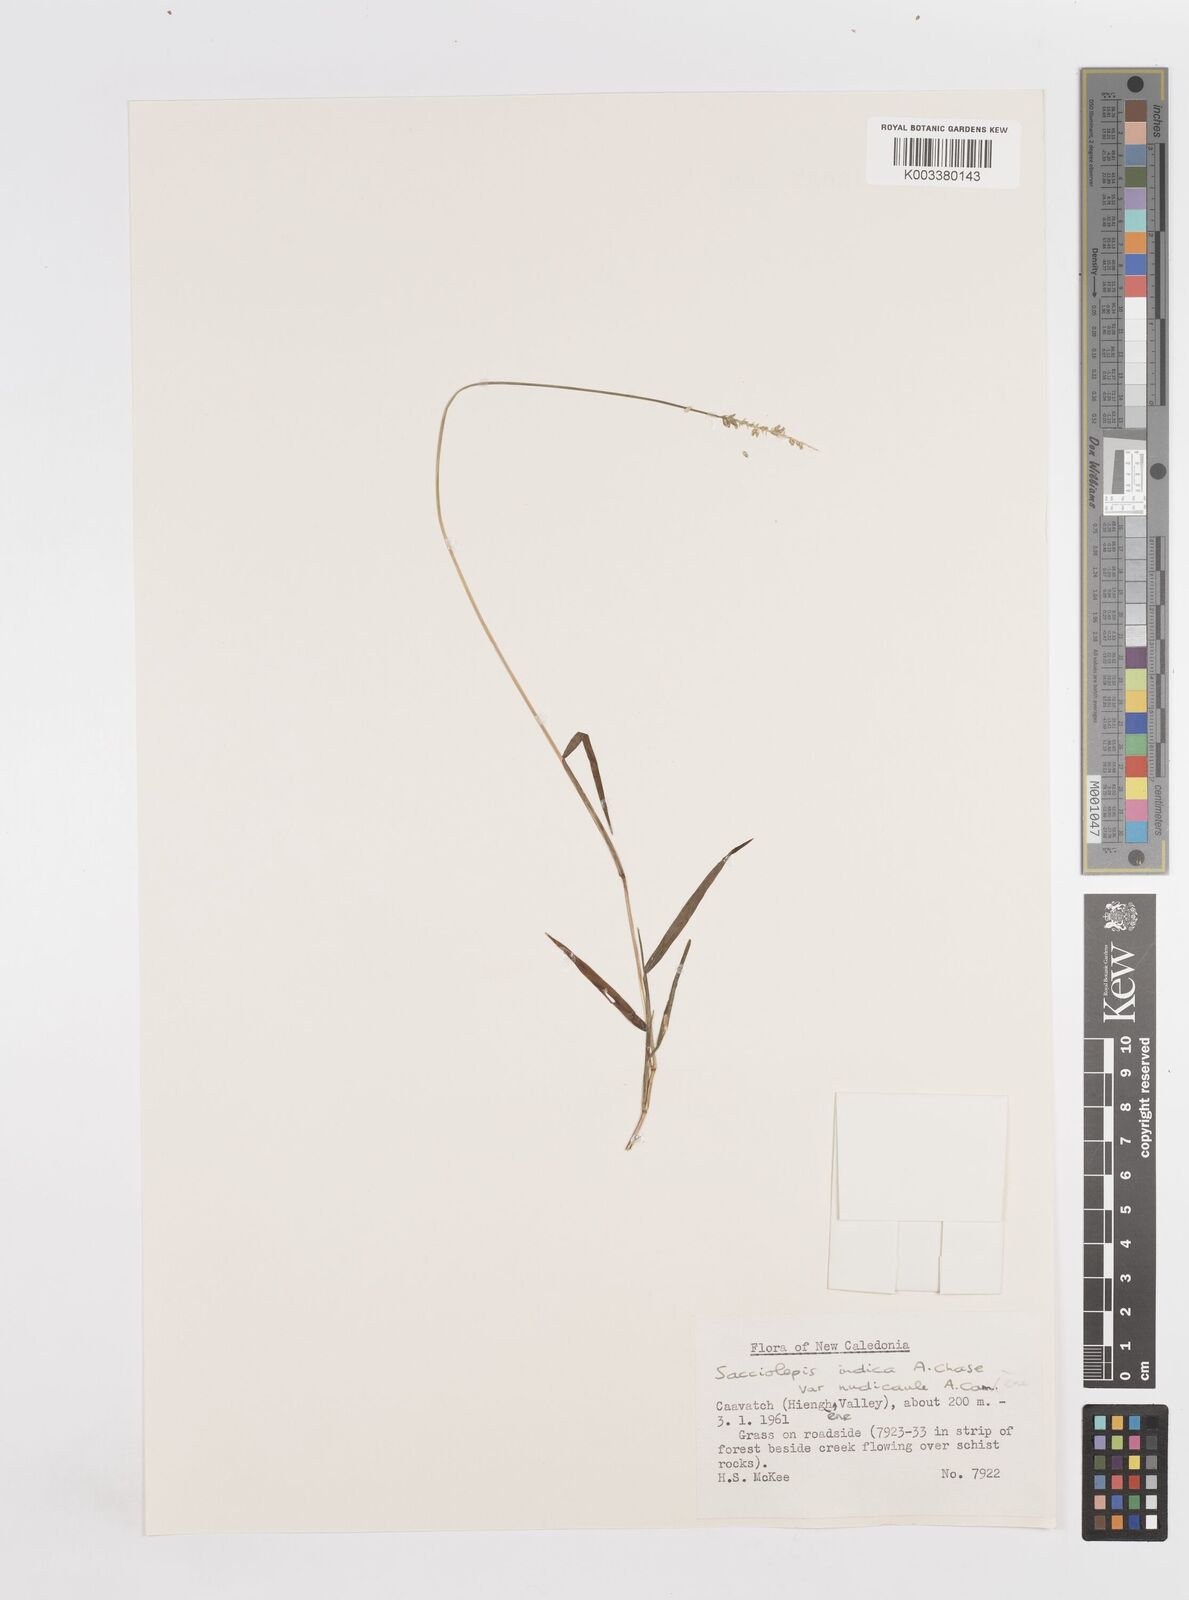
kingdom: Plantae
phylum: Tracheophyta
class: Liliopsida
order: Poales
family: Poaceae
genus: Sacciolepis
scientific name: Sacciolepis indica
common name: Glenwoodgrass
